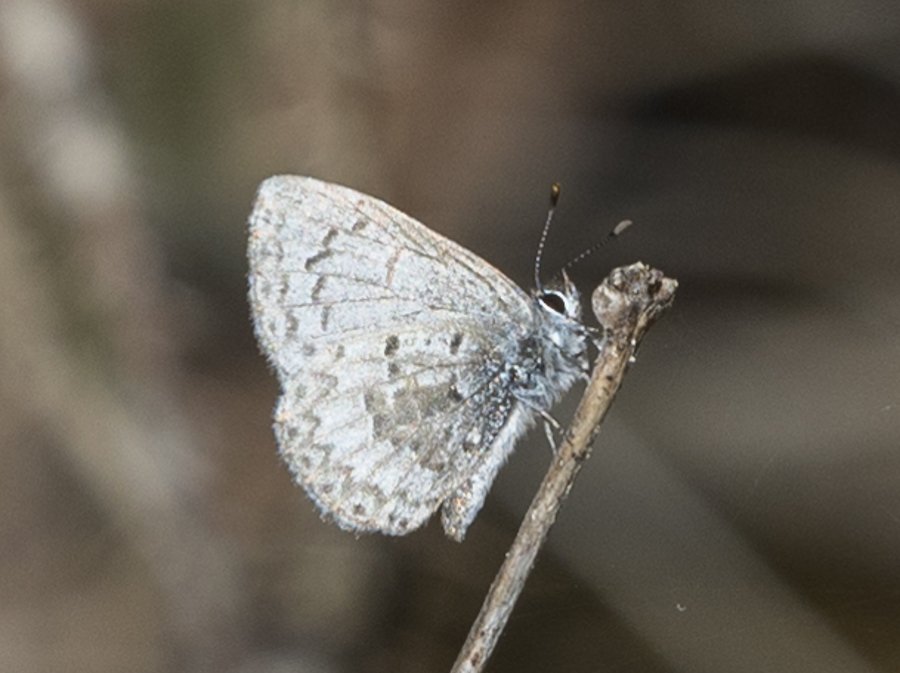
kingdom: Animalia
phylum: Arthropoda
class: Insecta
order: Lepidoptera
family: Lycaenidae
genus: Celastrina
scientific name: Celastrina lucia
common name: Northern Spring Azure
